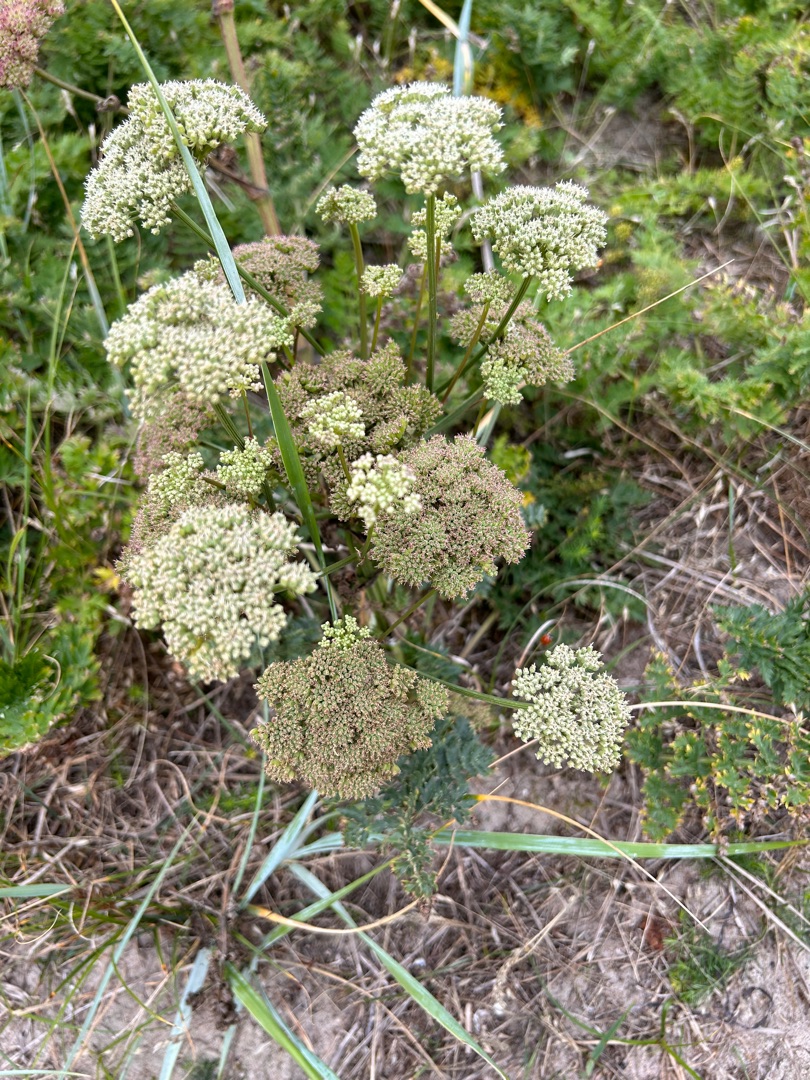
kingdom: Plantae
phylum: Tracheophyta
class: Magnoliopsida
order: Apiales
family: Apiaceae
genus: Seseli
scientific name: Seseli libanotis
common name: Hjorterod
